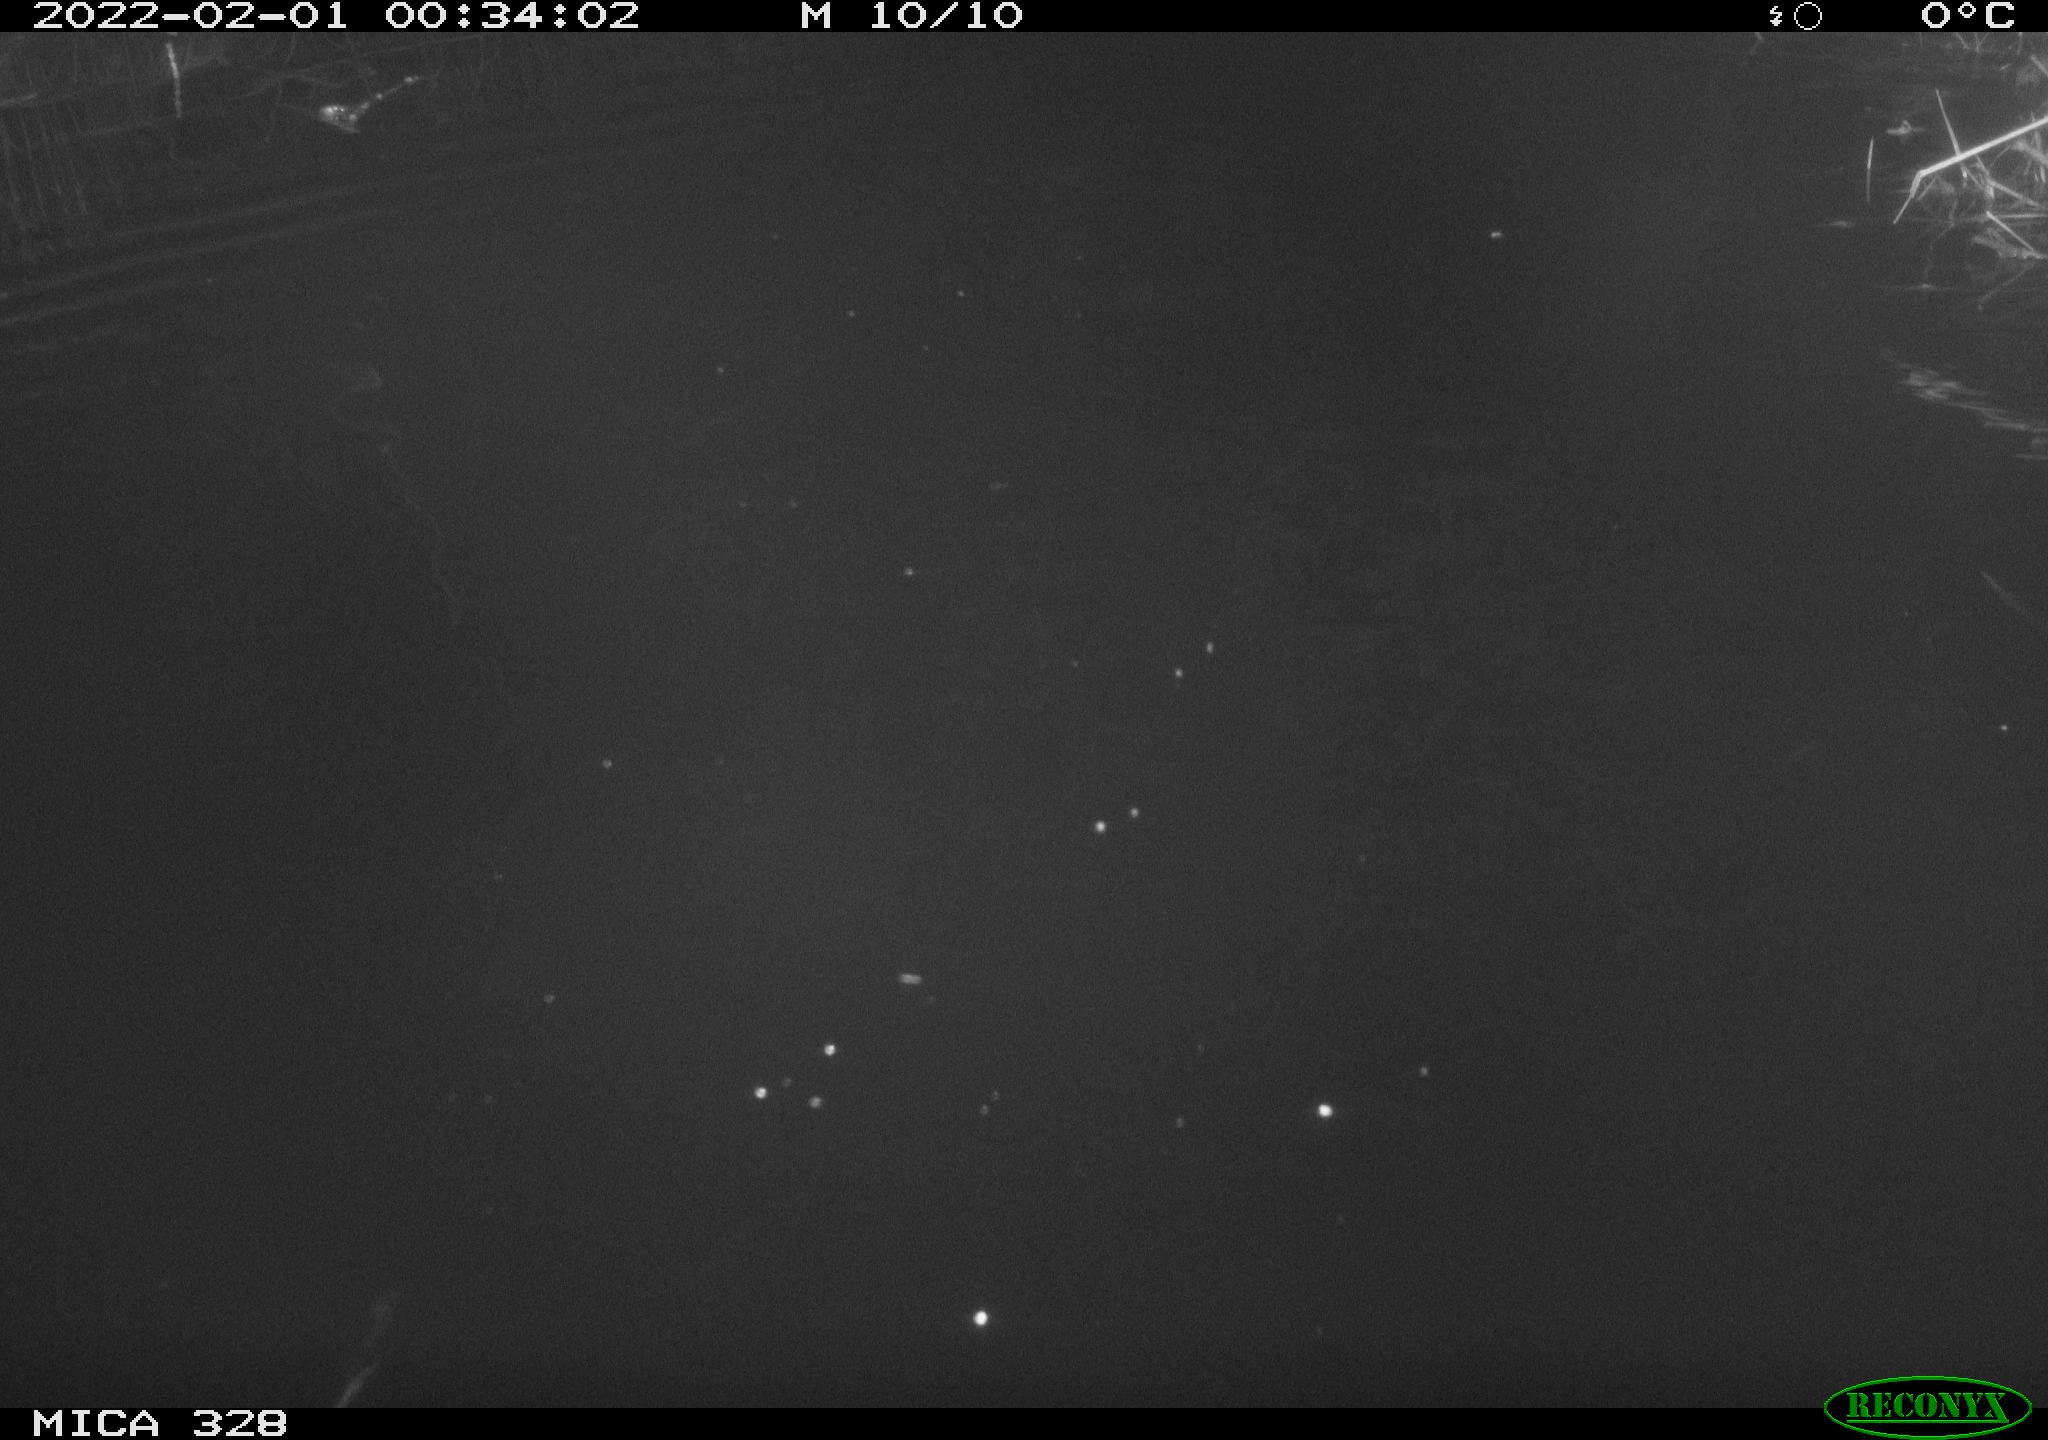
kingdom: Animalia
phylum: Chordata
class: Mammalia
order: Rodentia
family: Cricetidae
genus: Ondatra
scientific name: Ondatra zibethicus
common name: Muskrat
